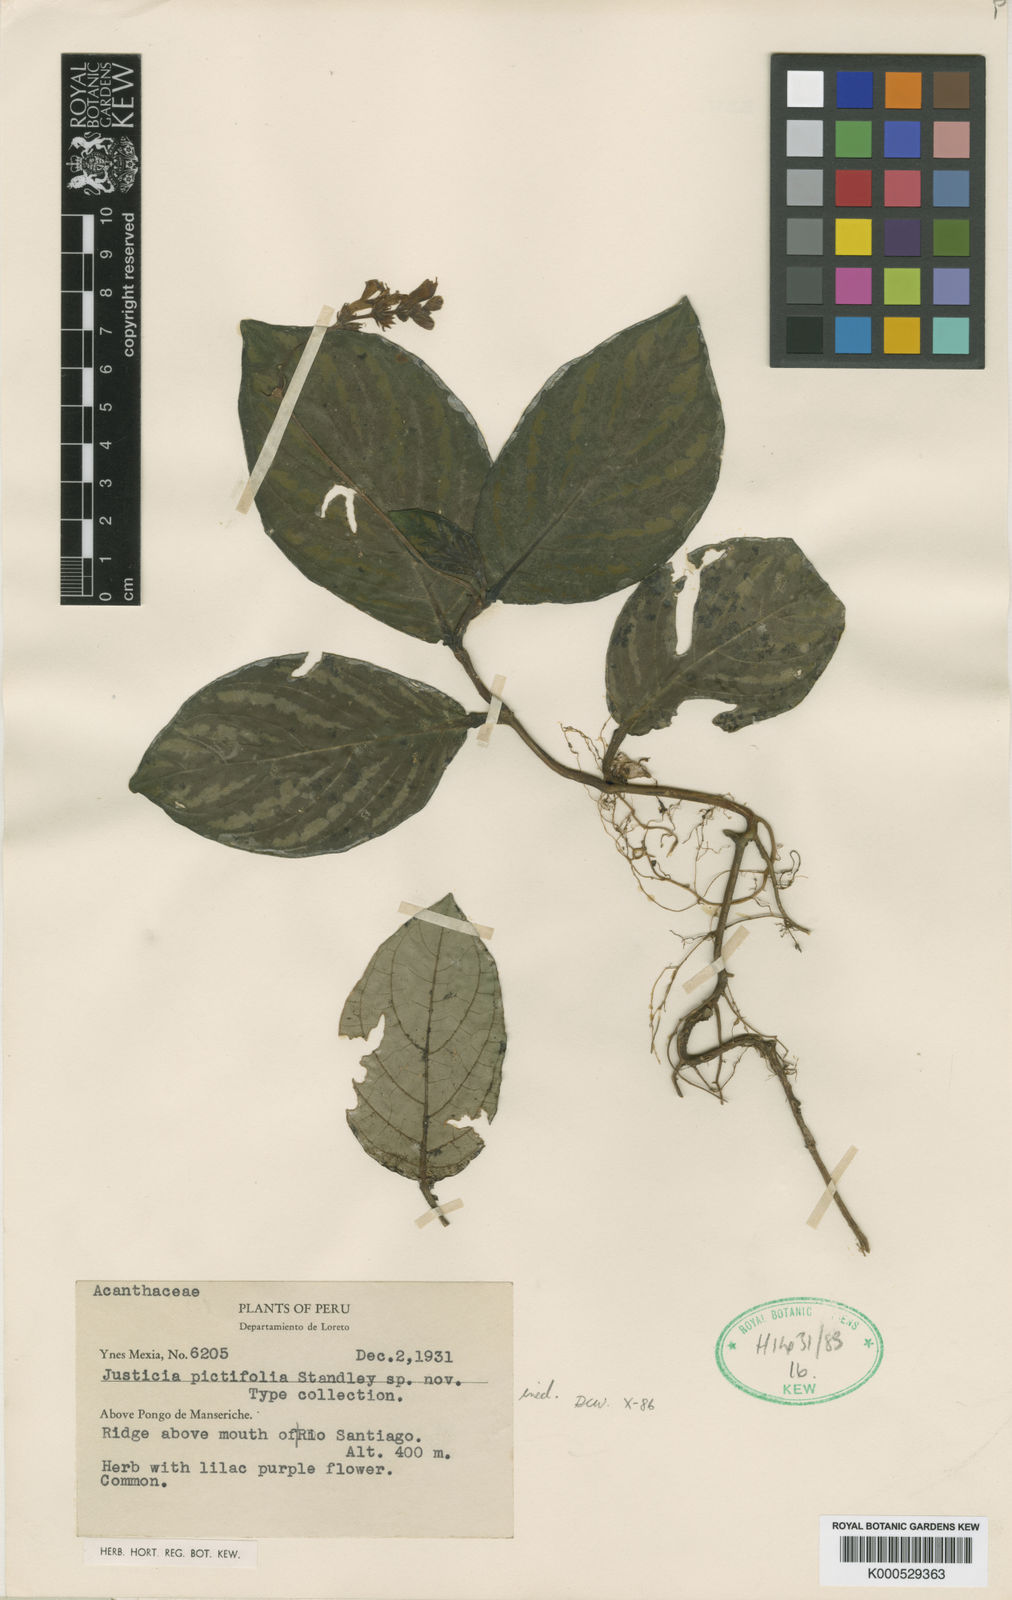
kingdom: Plantae
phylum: Tracheophyta
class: Magnoliopsida
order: Lamiales
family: Acanthaceae
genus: Justicia
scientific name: Justicia
